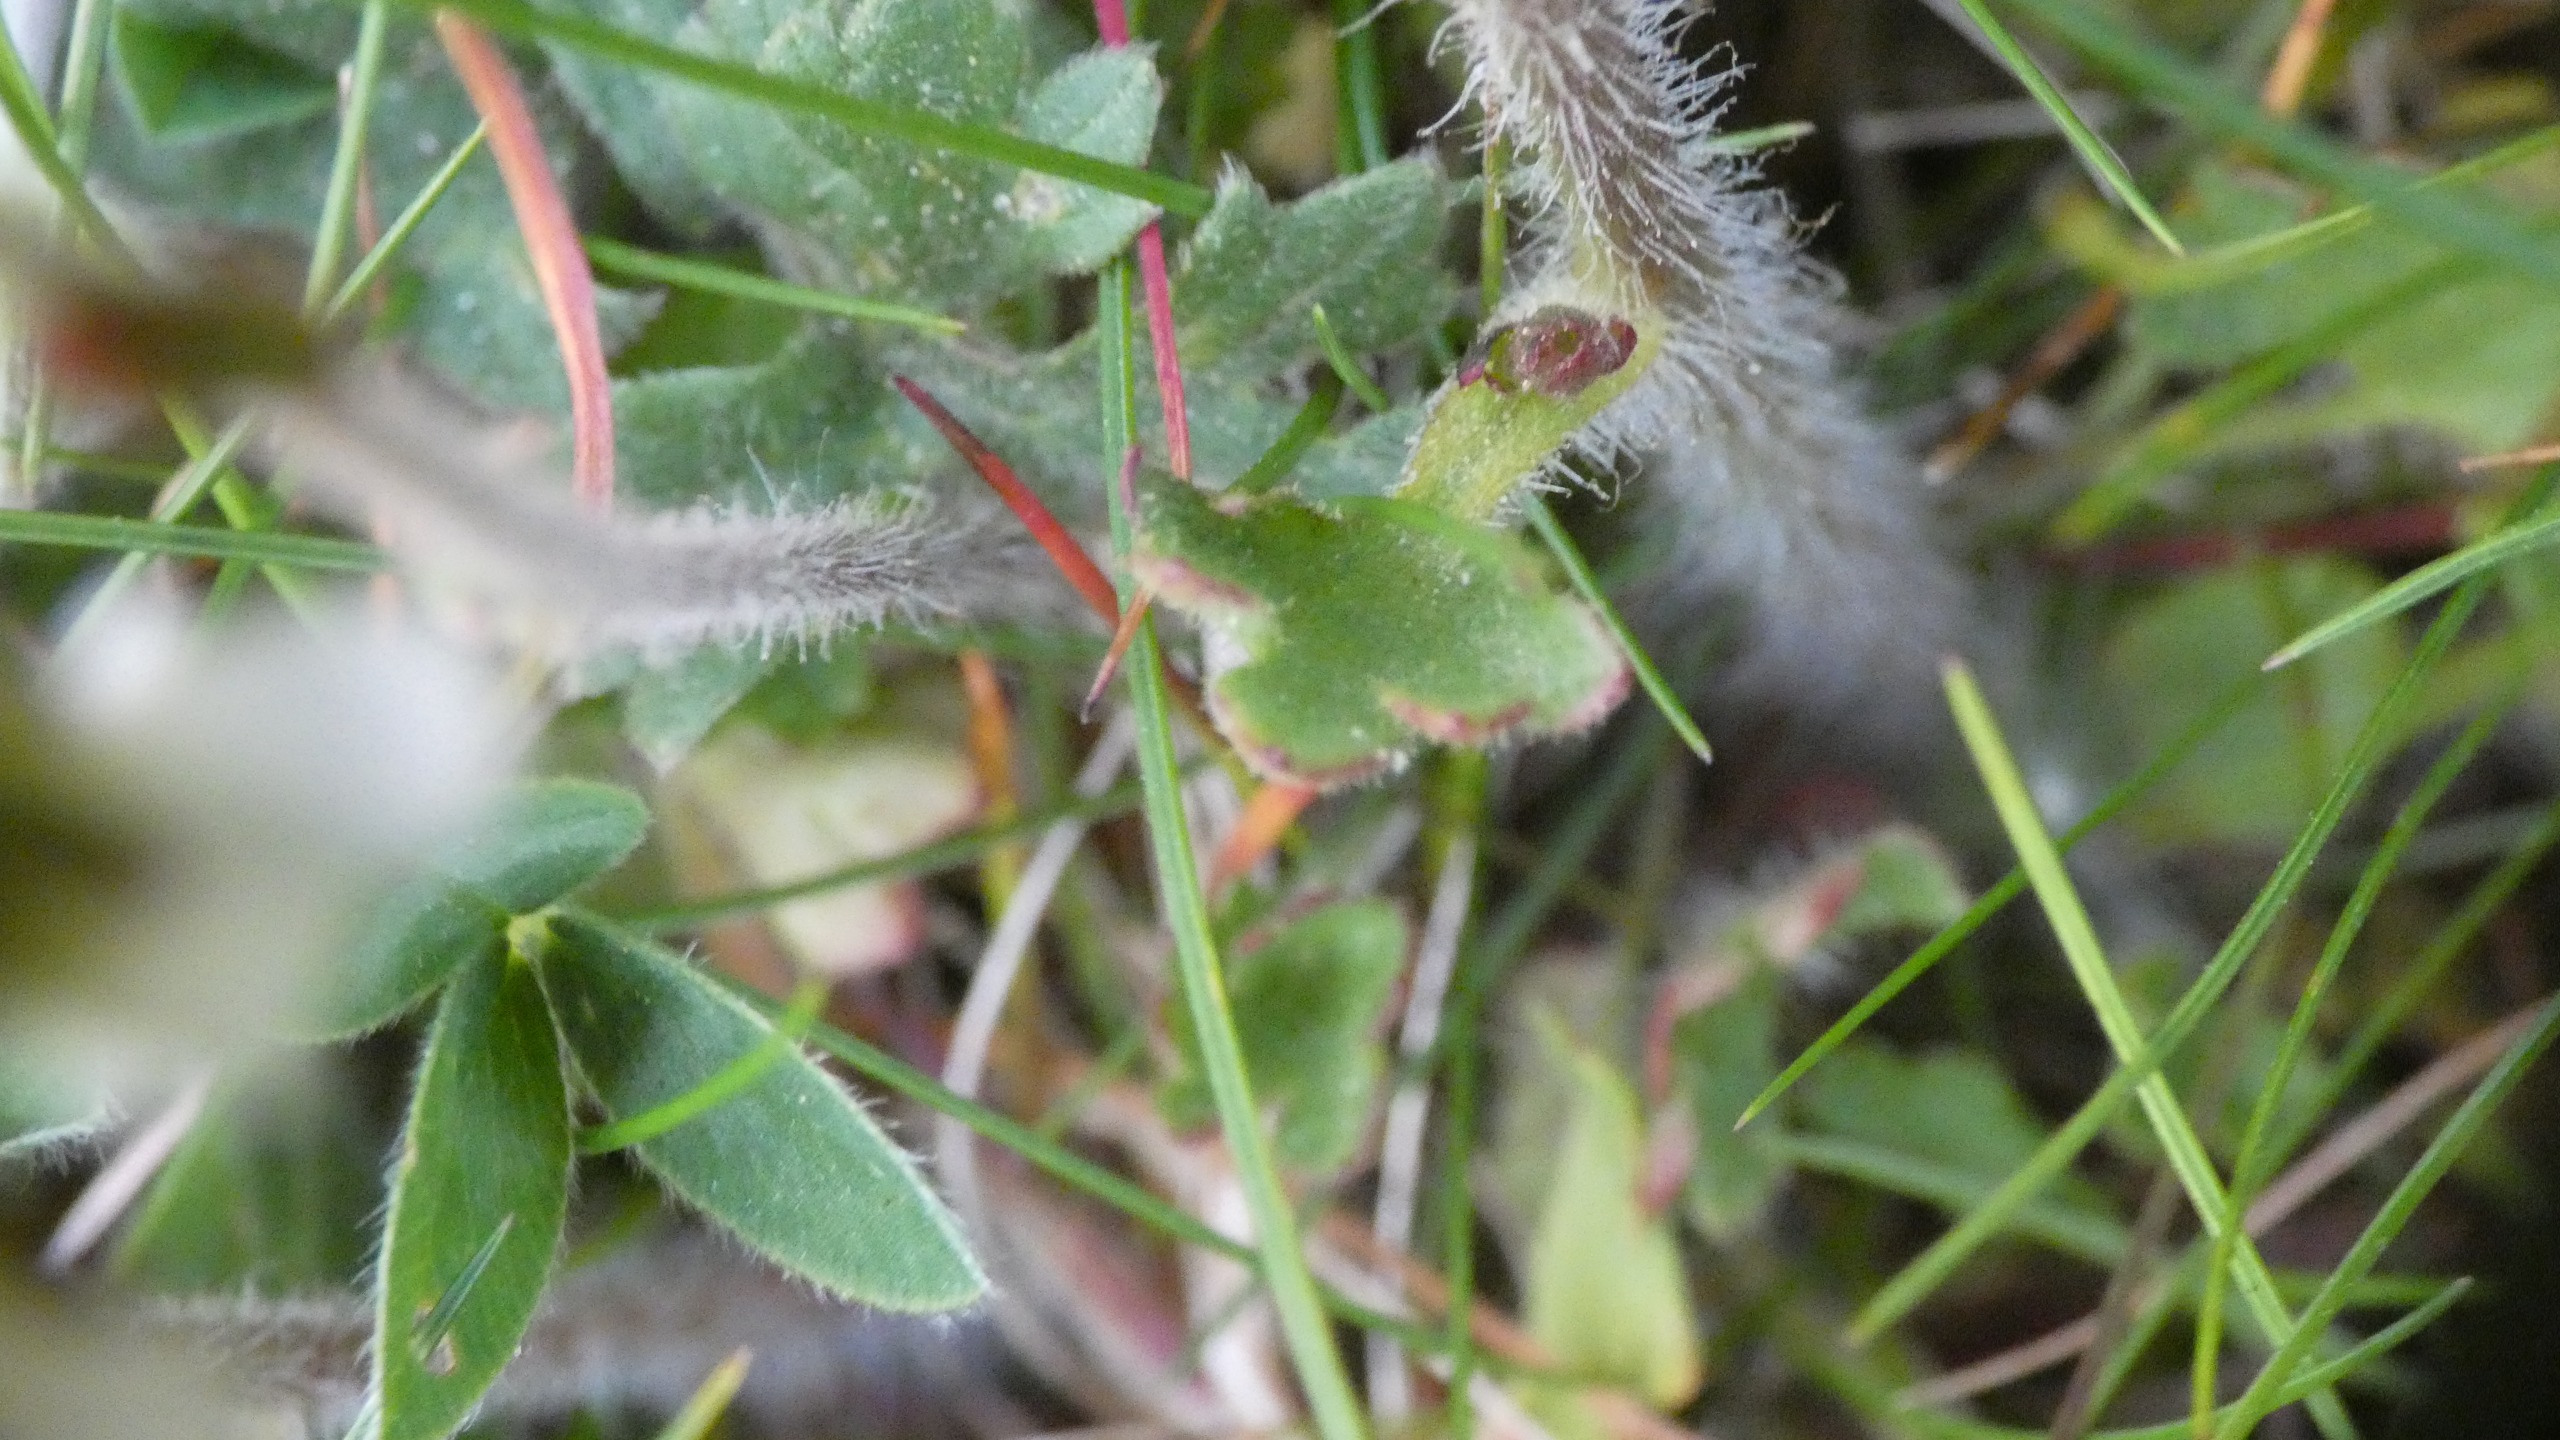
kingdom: Plantae
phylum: Tracheophyta
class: Magnoliopsida
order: Saxifragales
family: Saxifragaceae
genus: Saxifraga
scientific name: Saxifraga granulata
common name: Kornet stenbræk
